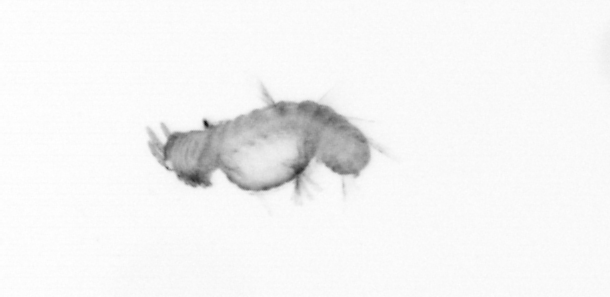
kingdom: Animalia
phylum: Annelida
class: Polychaeta
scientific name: Polychaeta
